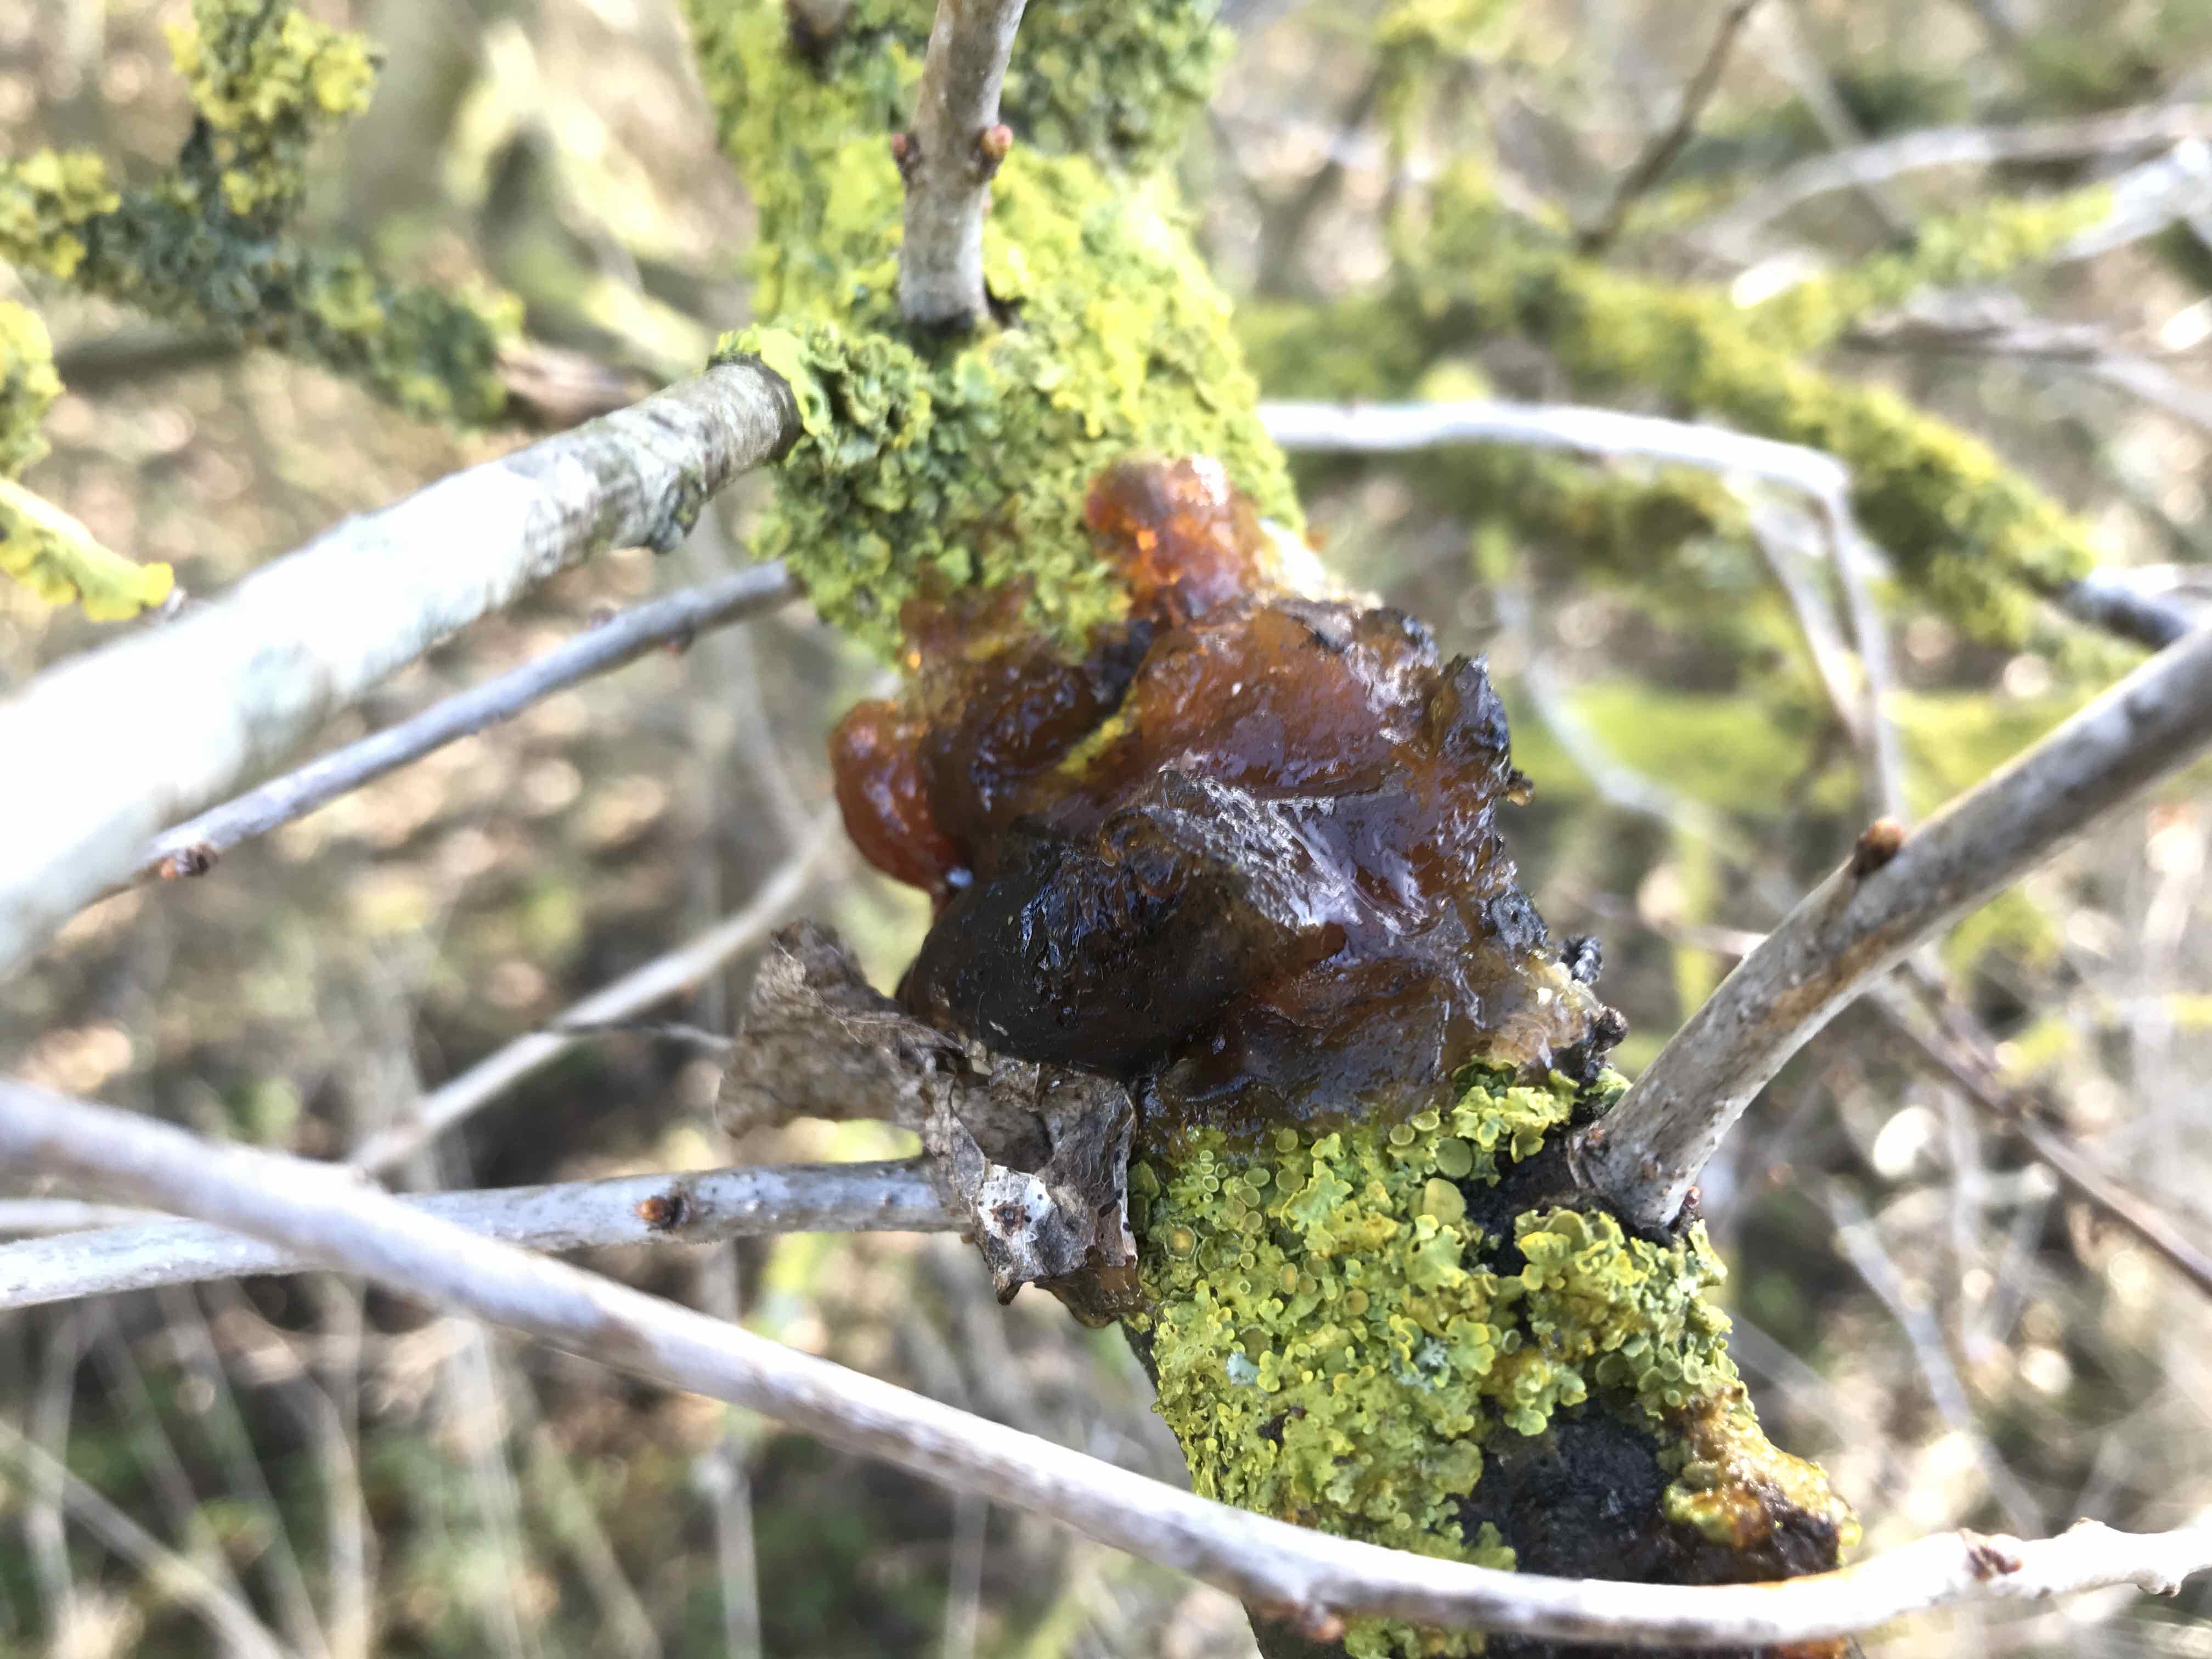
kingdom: Fungi
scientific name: Fungi
